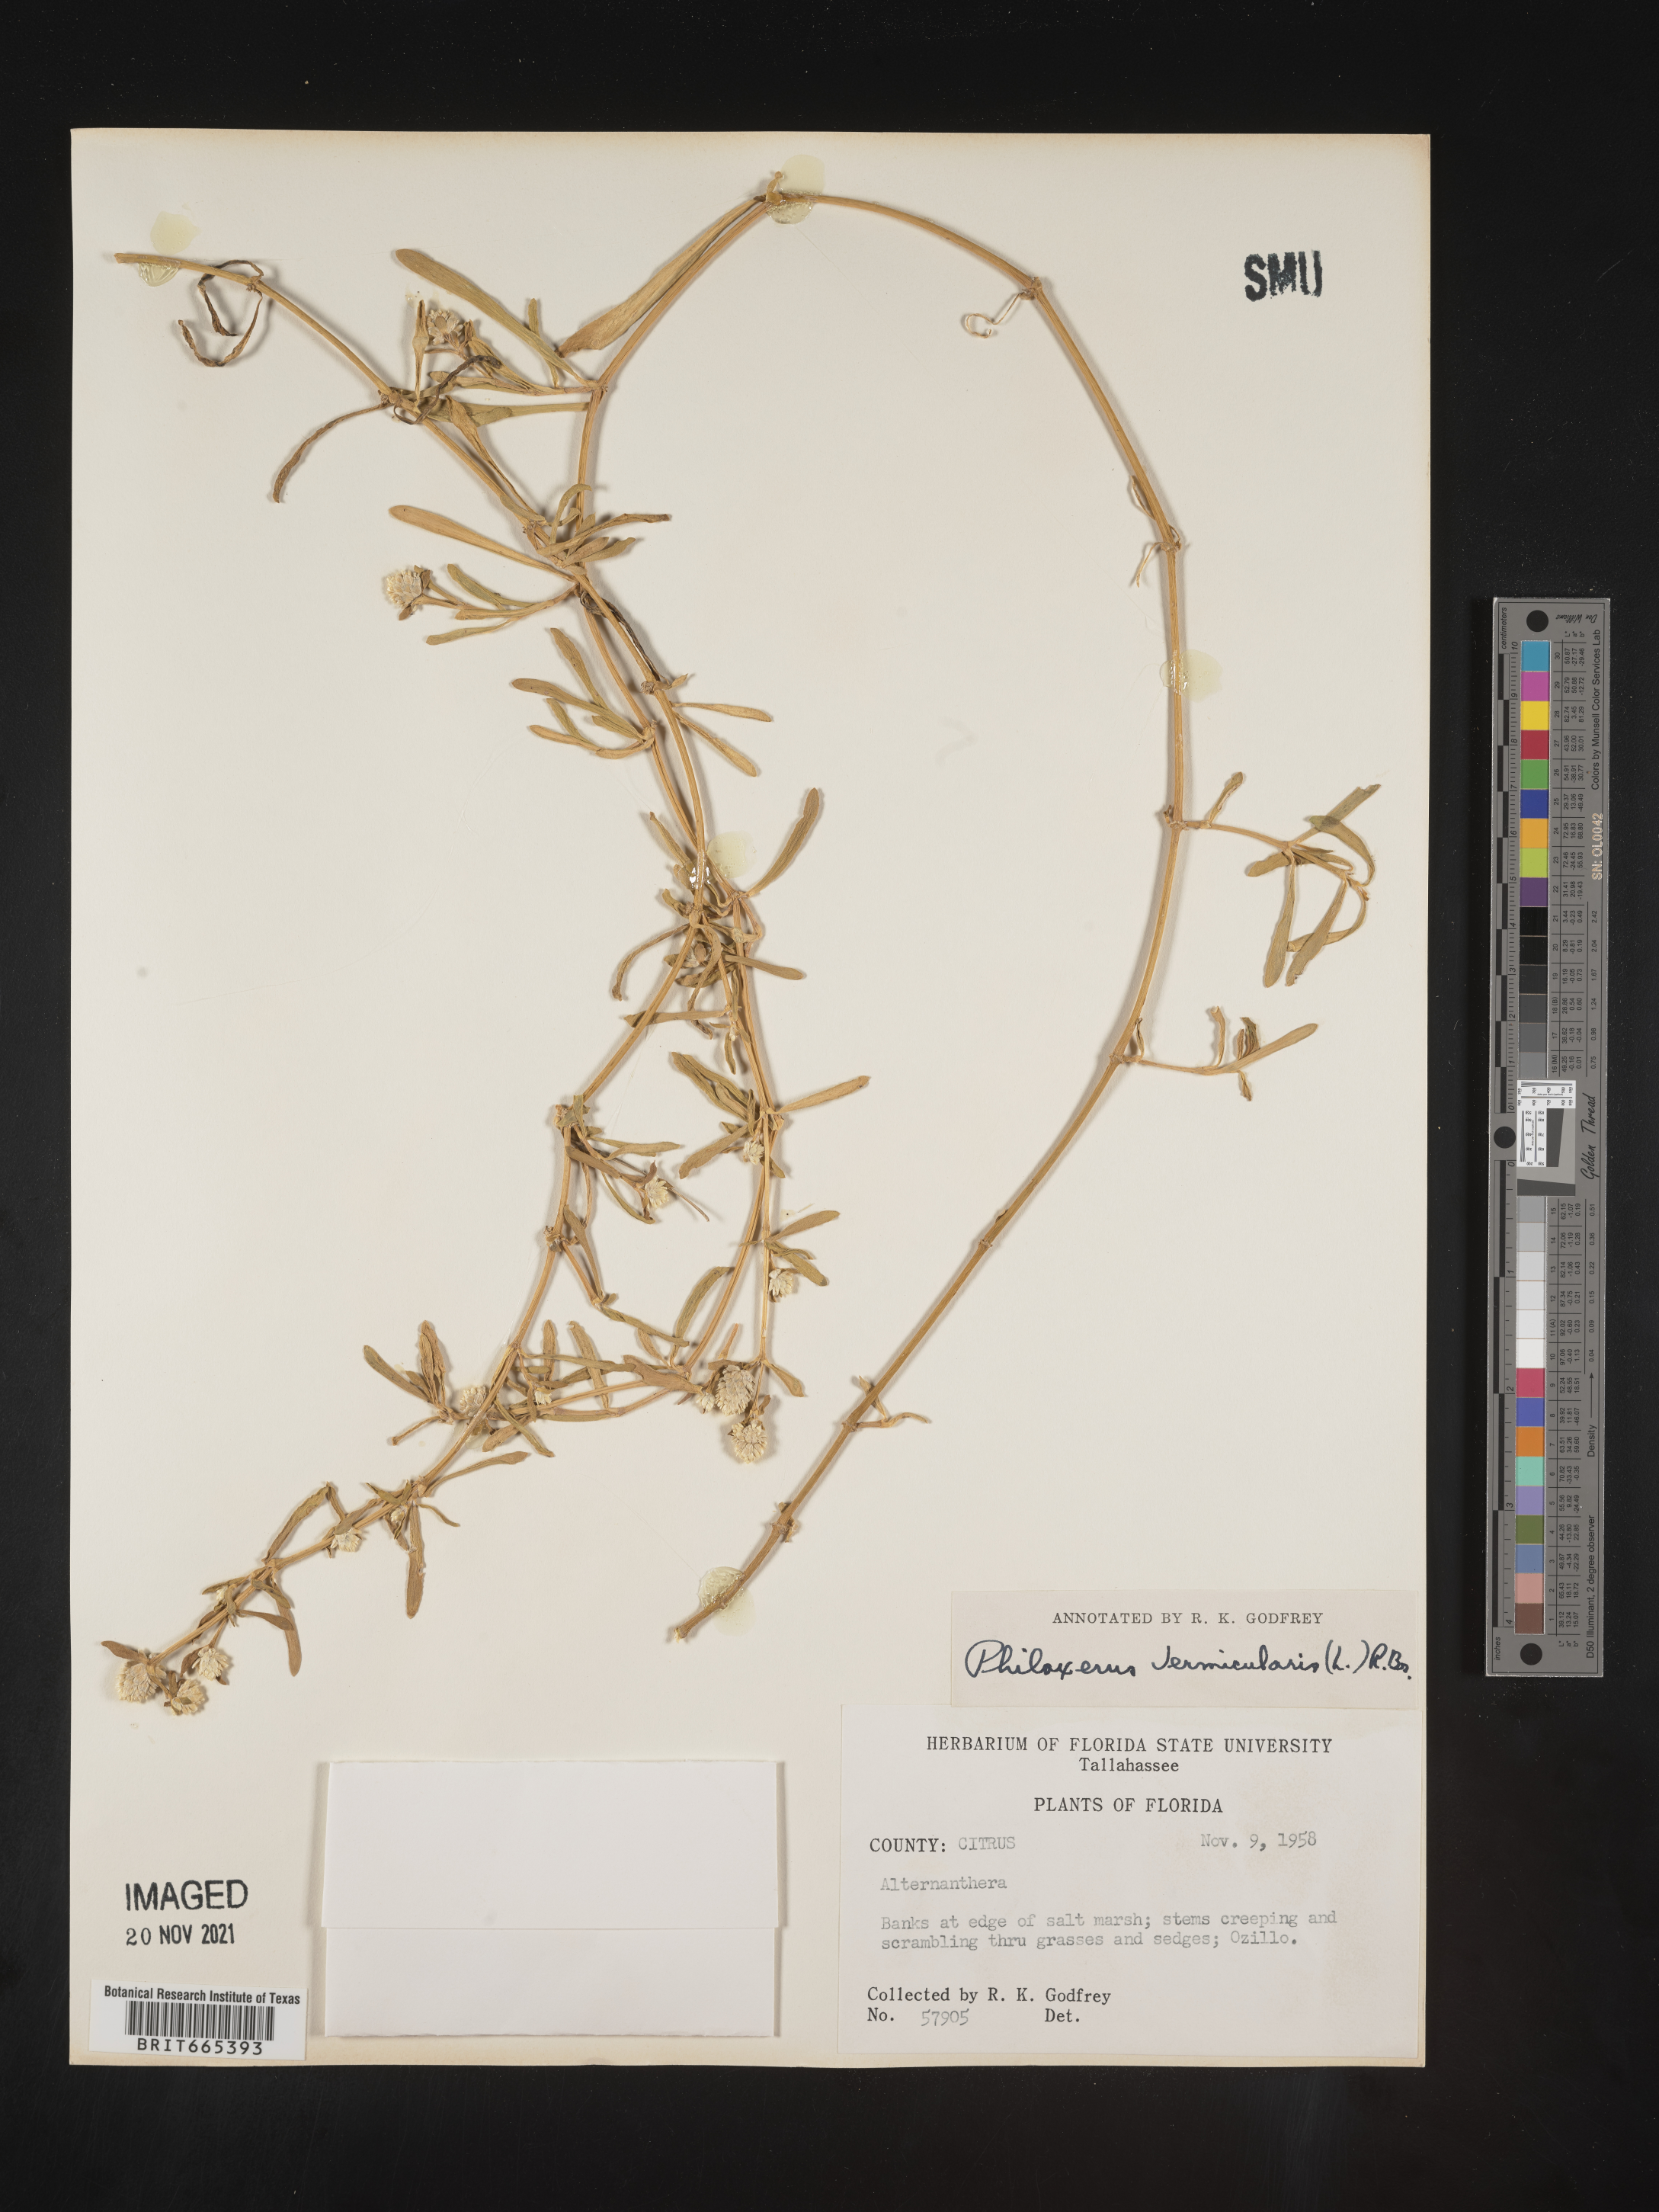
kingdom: Plantae
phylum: Tracheophyta
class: Magnoliopsida
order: Caryophyllales
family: Amaranthaceae
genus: Gomphrena
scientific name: Gomphrena
